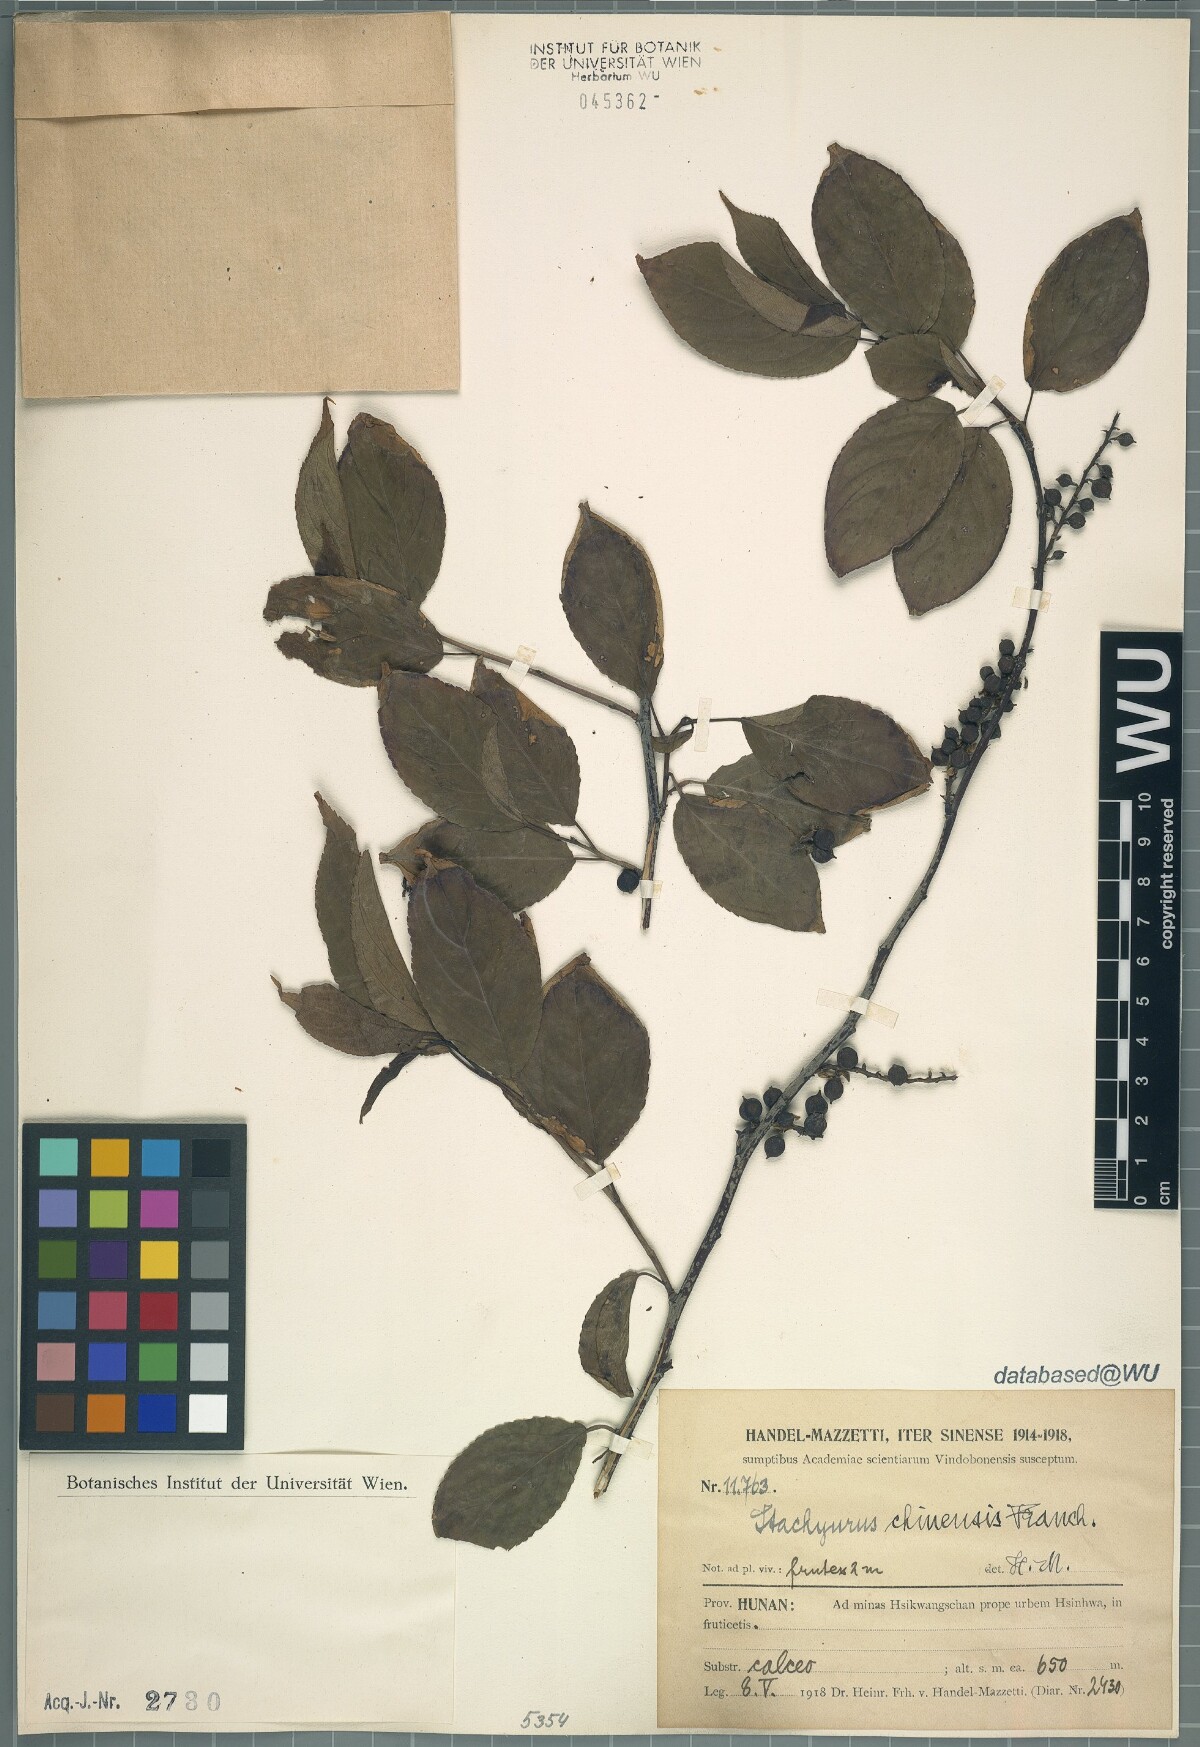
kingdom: Plantae
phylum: Tracheophyta
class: Magnoliopsida
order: Crossosomatales
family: Stachyuraceae
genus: Stachyurus
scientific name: Stachyurus chinensis
